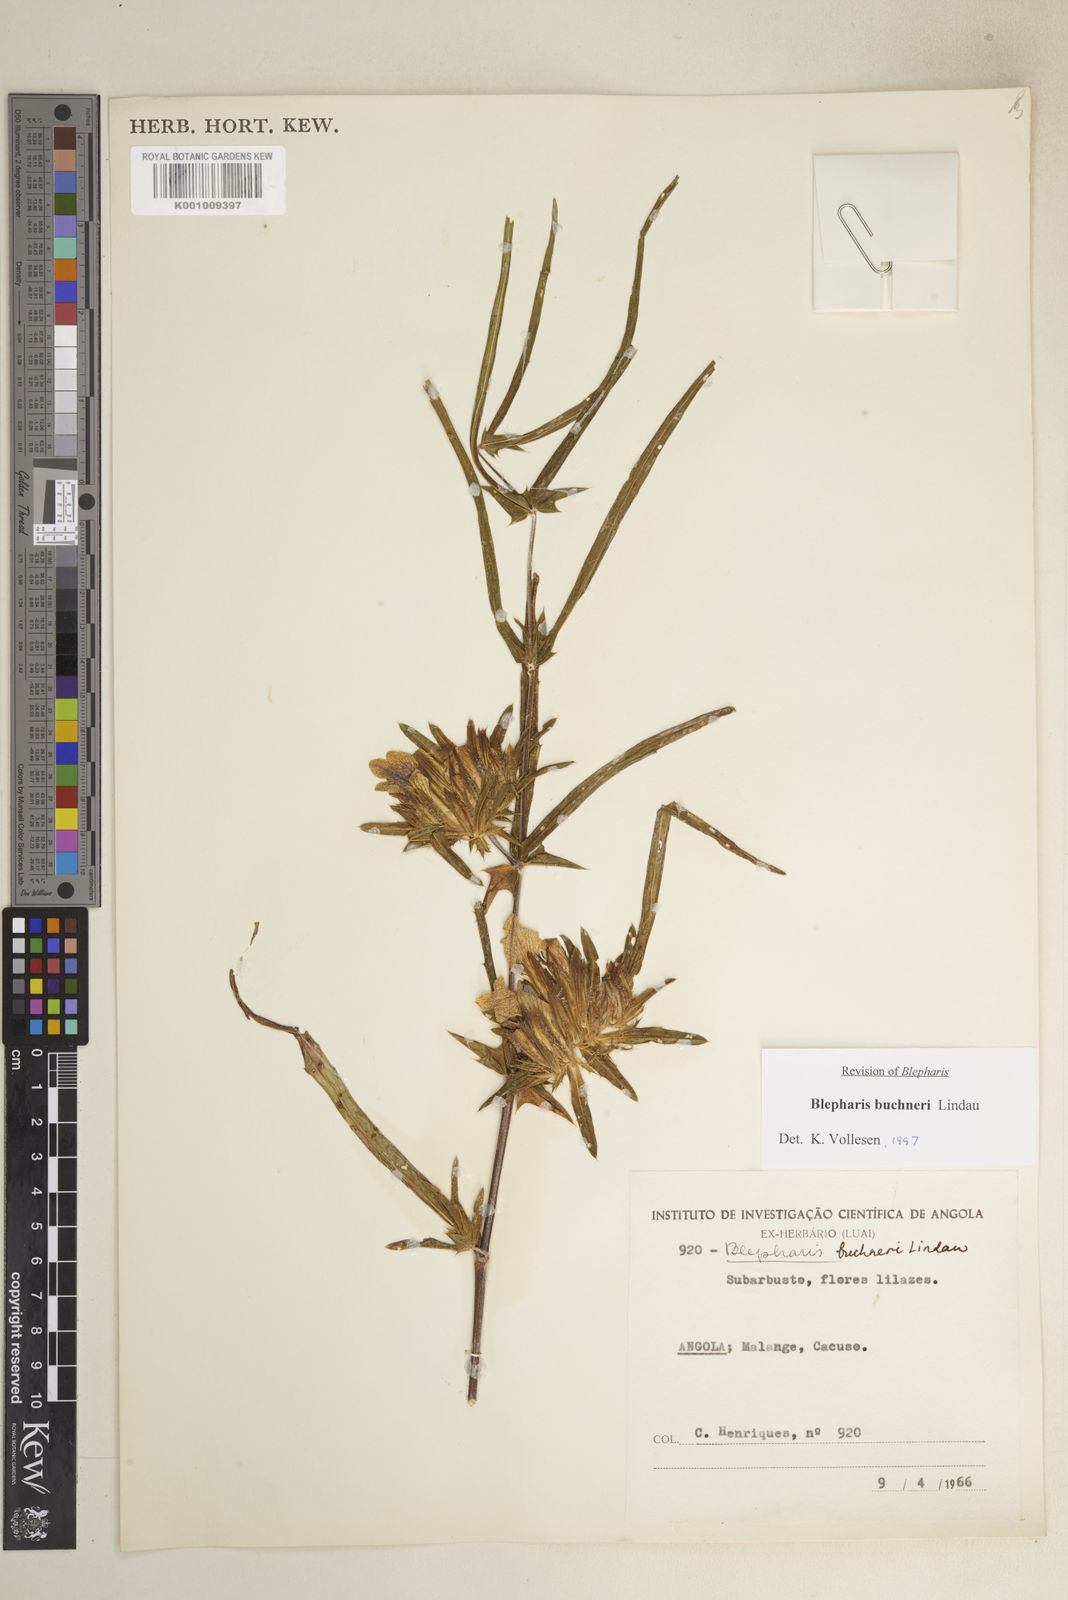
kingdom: Plantae
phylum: Tracheophyta
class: Magnoliopsida
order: Lamiales
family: Acanthaceae
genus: Blepharis
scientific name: Blepharis buchneri
